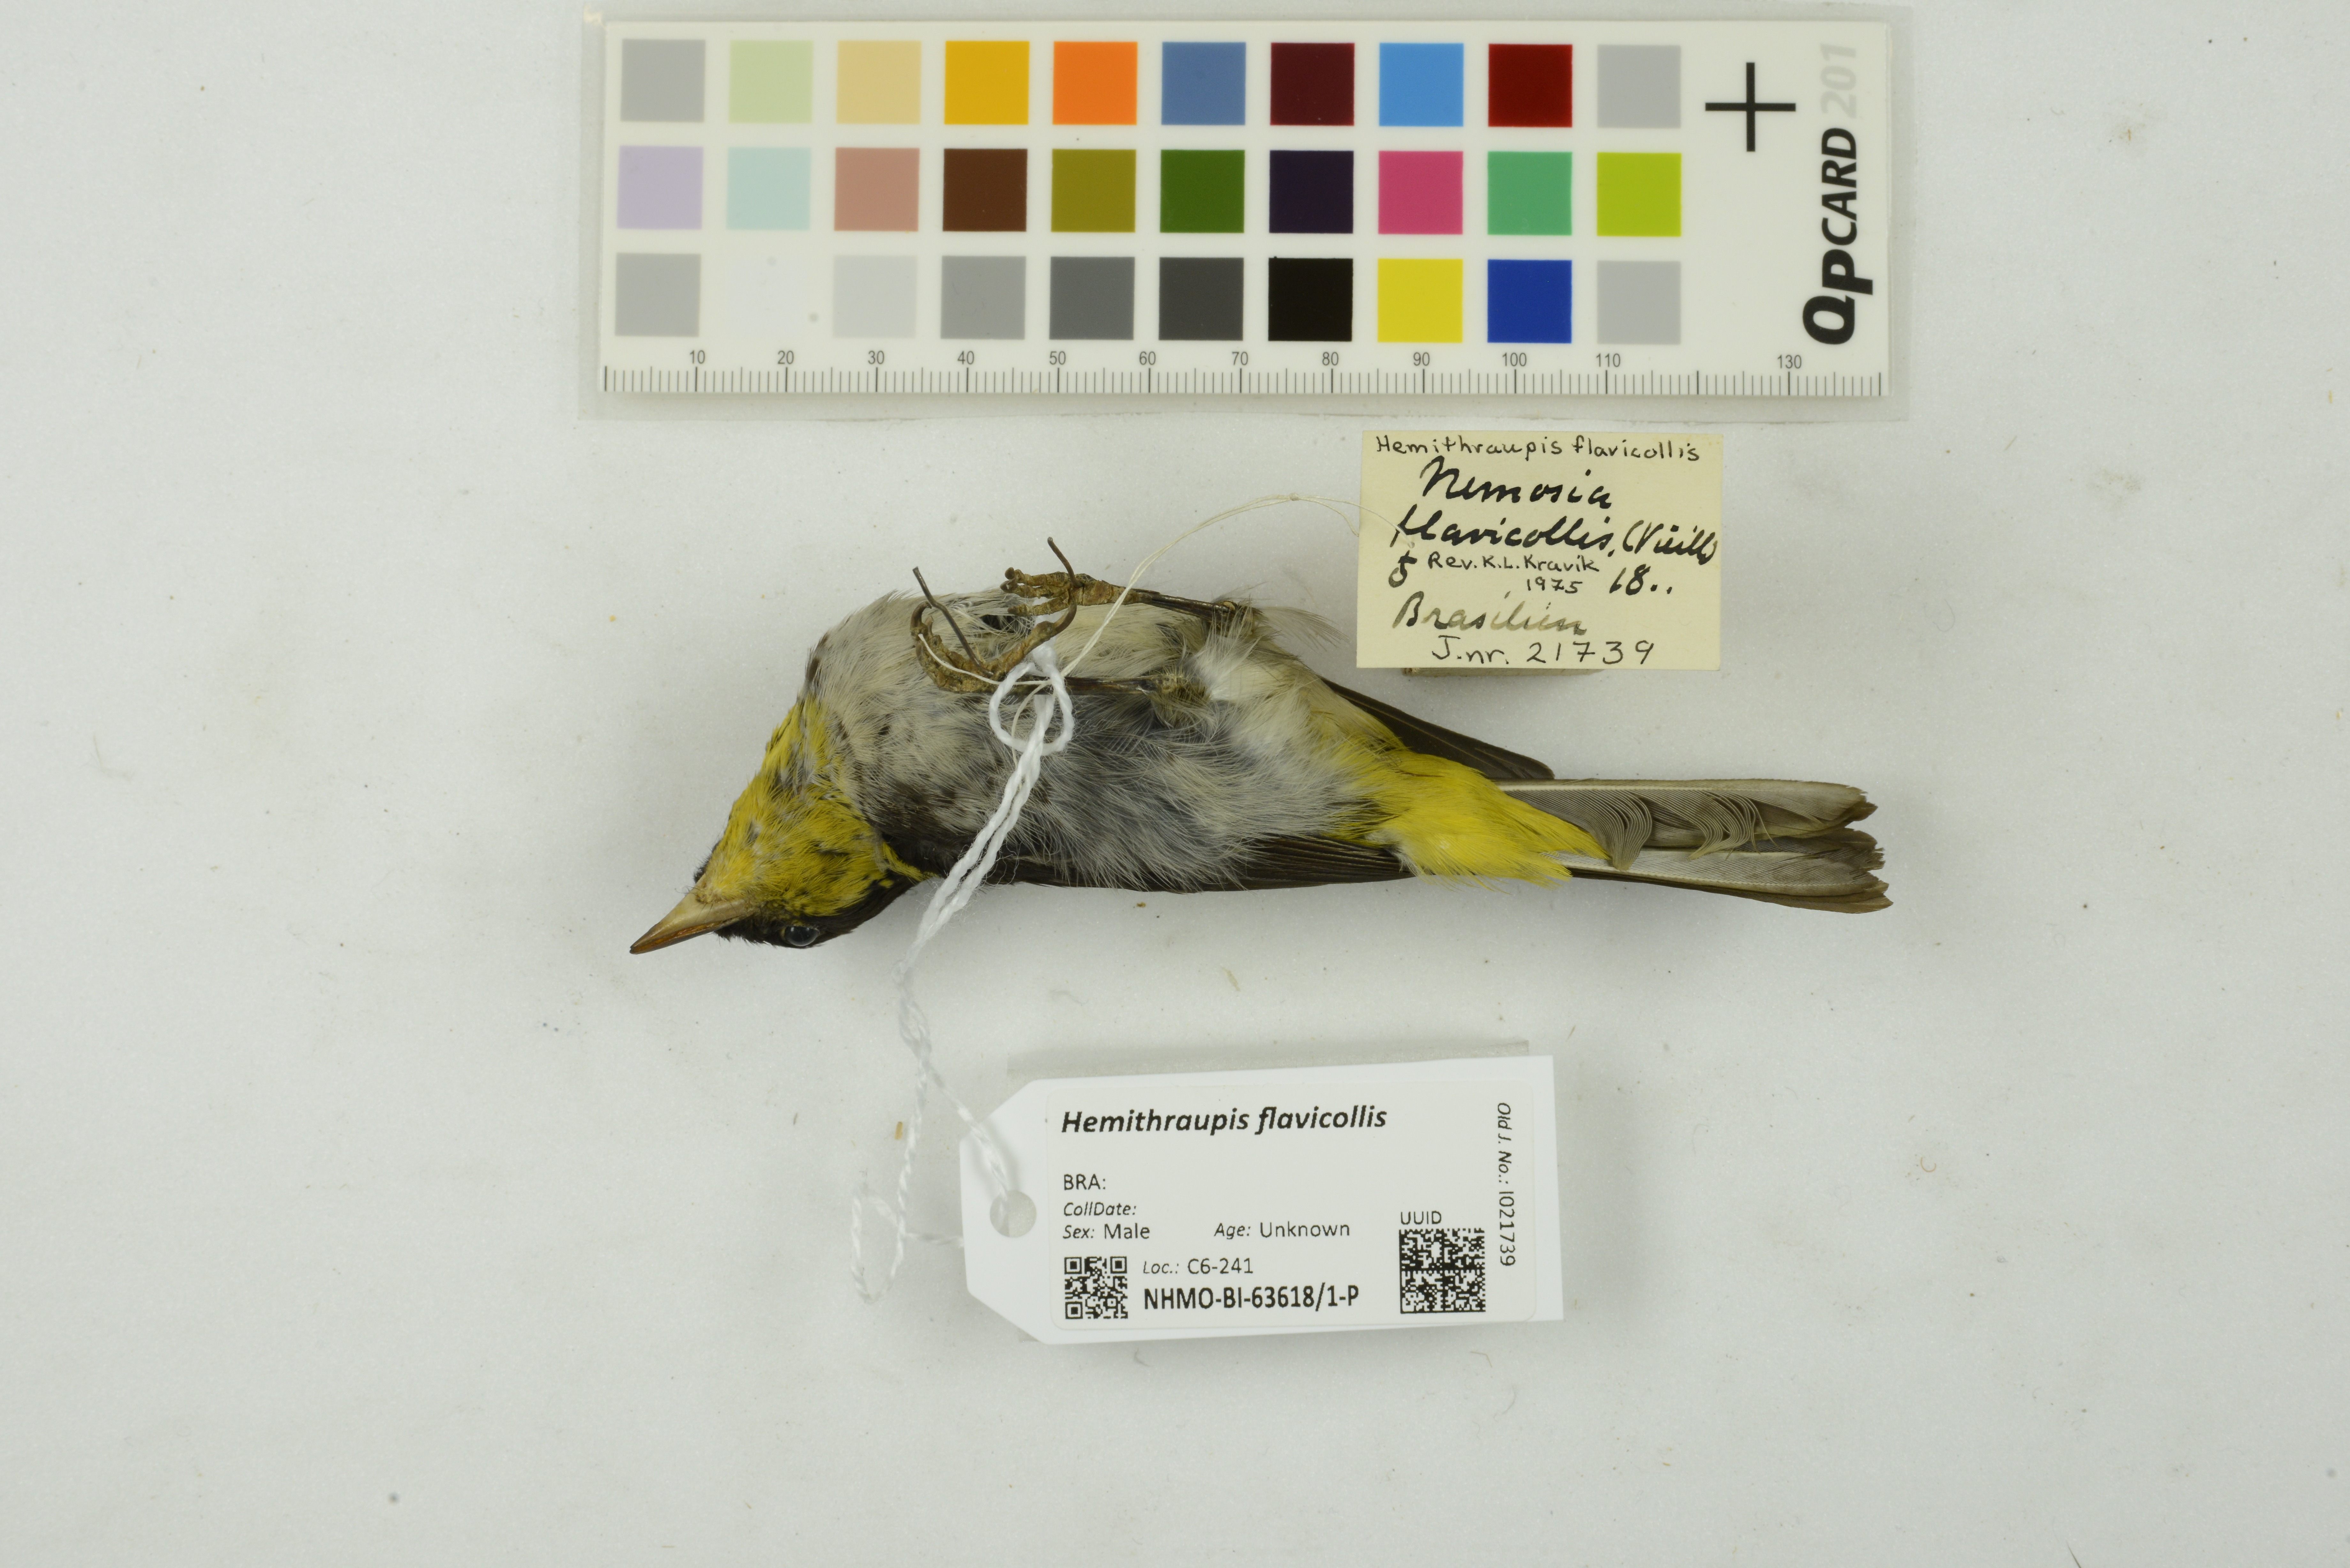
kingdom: Animalia
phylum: Chordata
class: Aves
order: Passeriformes
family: Thraupidae
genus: Hemithraupis
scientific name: Hemithraupis flavicollis
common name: Yellow-backed tanager
